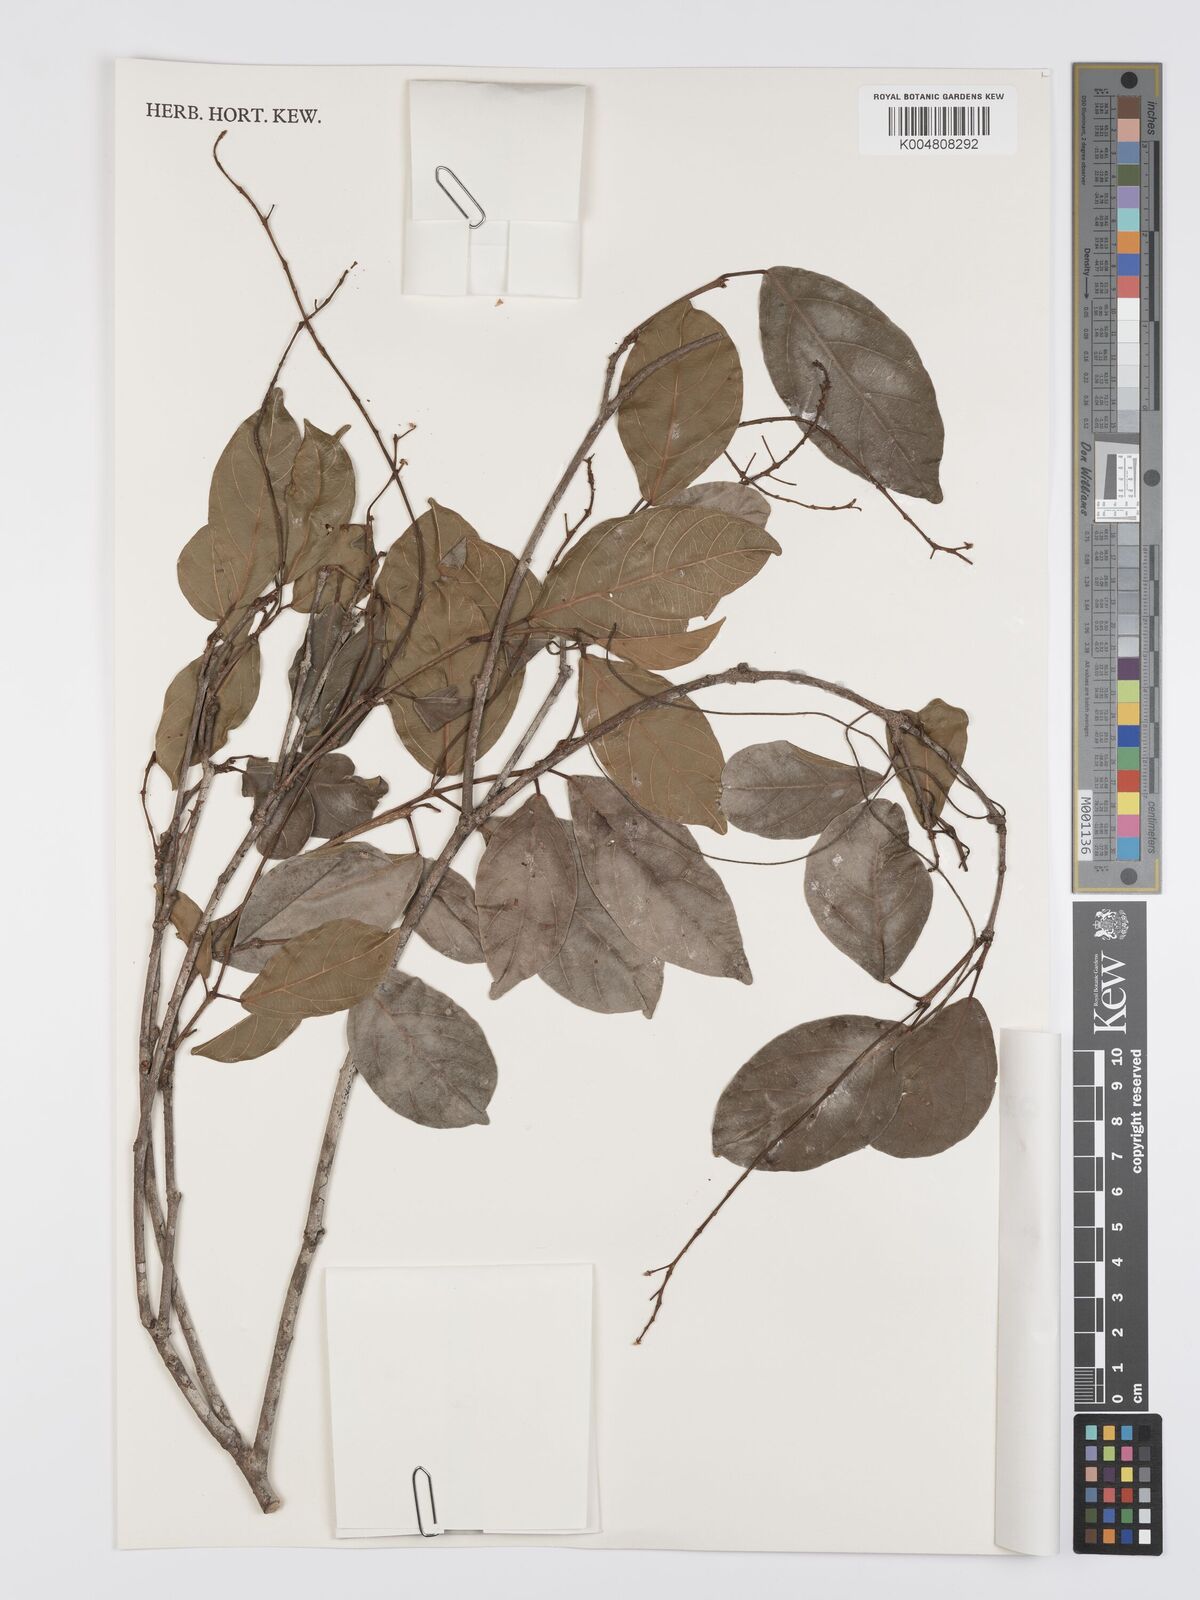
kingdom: Plantae
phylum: Tracheophyta
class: Magnoliopsida
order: Malpighiales
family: Euphorbiaceae
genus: Mallotus
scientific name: Mallotus polyadenos
